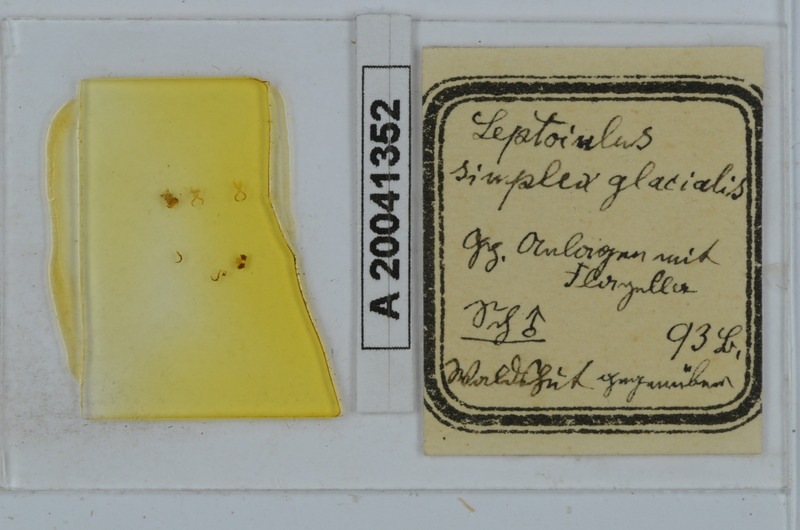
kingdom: Animalia
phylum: Arthropoda
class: Diplopoda
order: Julida
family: Julidae
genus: Leptoiulus
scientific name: Leptoiulus simplex
